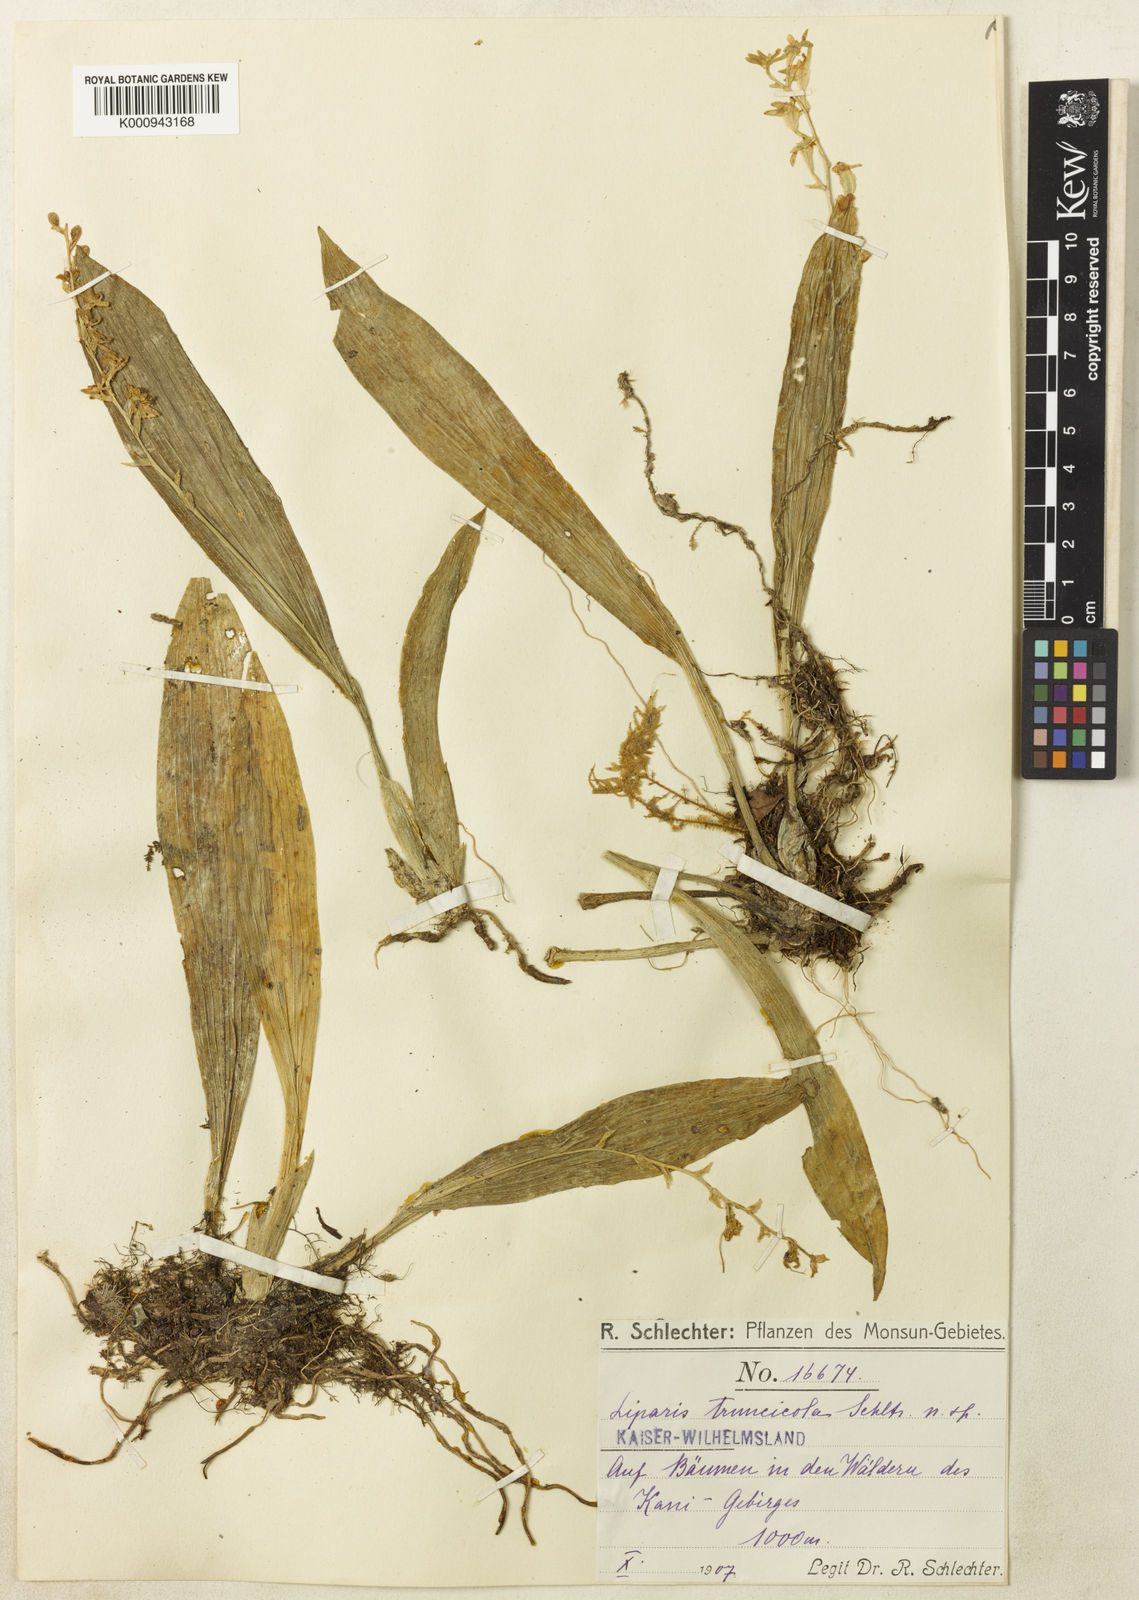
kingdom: Plantae
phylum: Tracheophyta
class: Liliopsida
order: Asparagales
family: Orchidaceae
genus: Liparis
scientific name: Liparis truncicola
